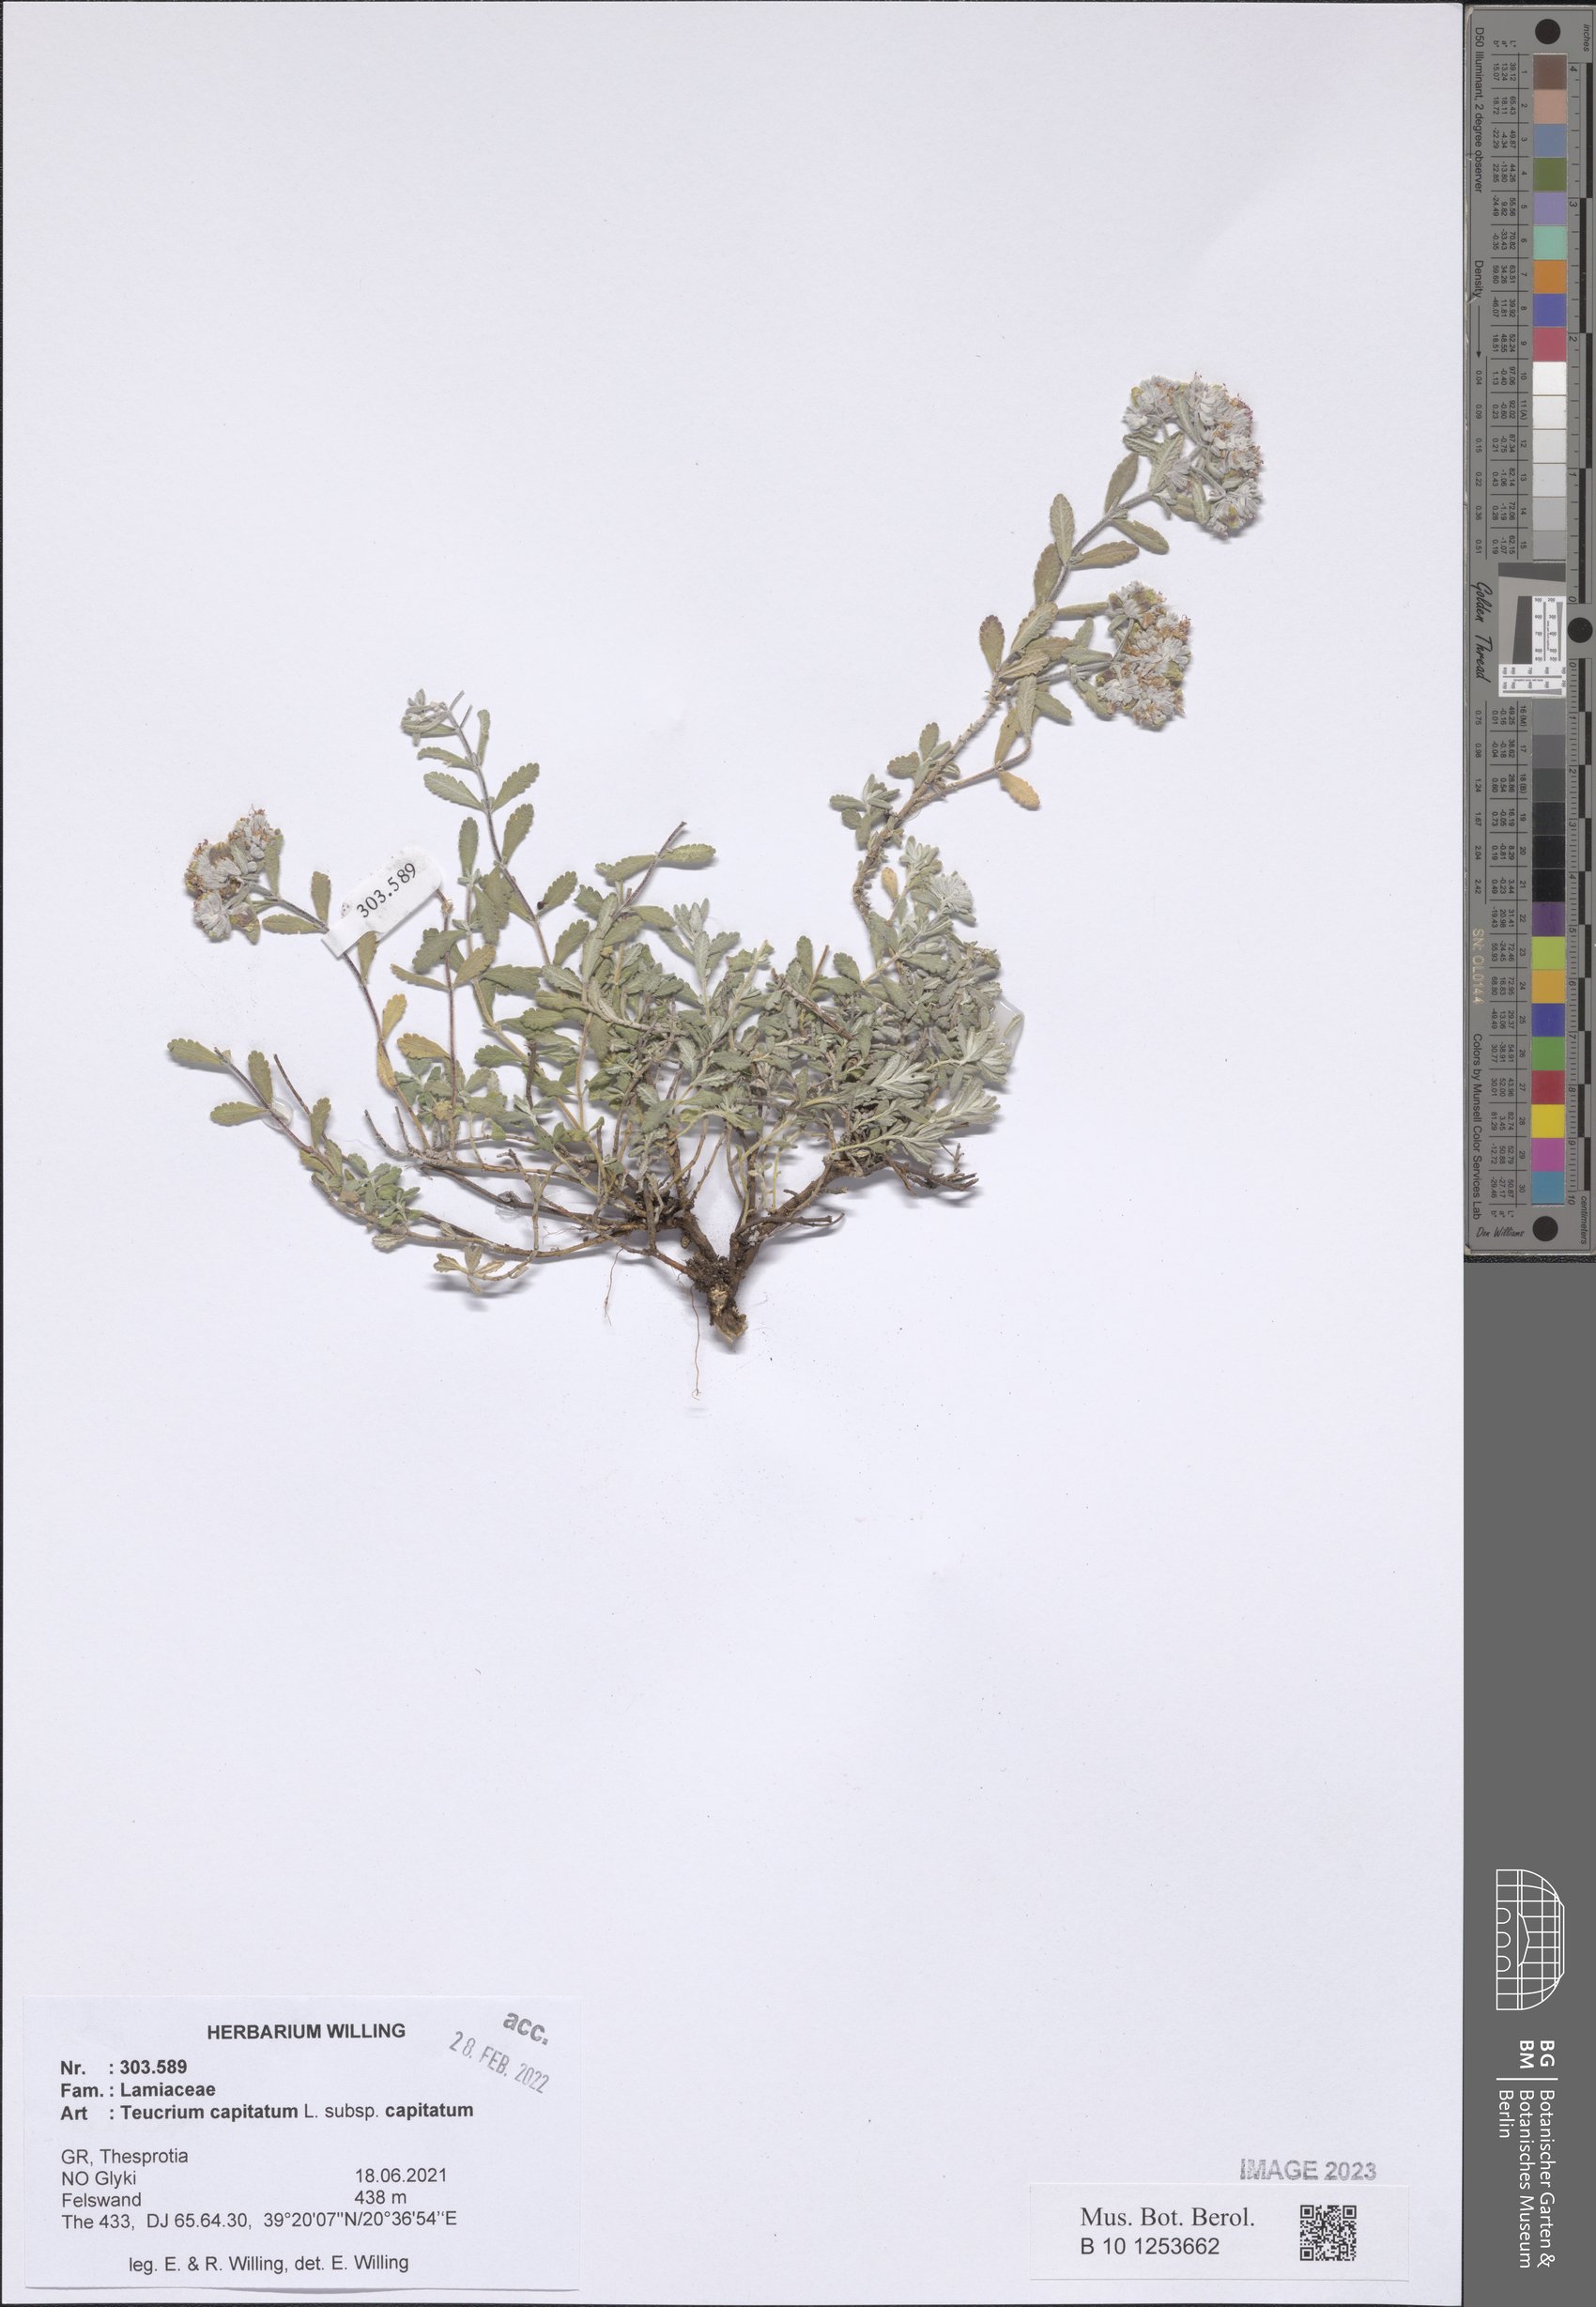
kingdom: Plantae
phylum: Tracheophyta
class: Magnoliopsida
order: Lamiales
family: Lamiaceae
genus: Teucrium
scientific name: Teucrium capitatum
